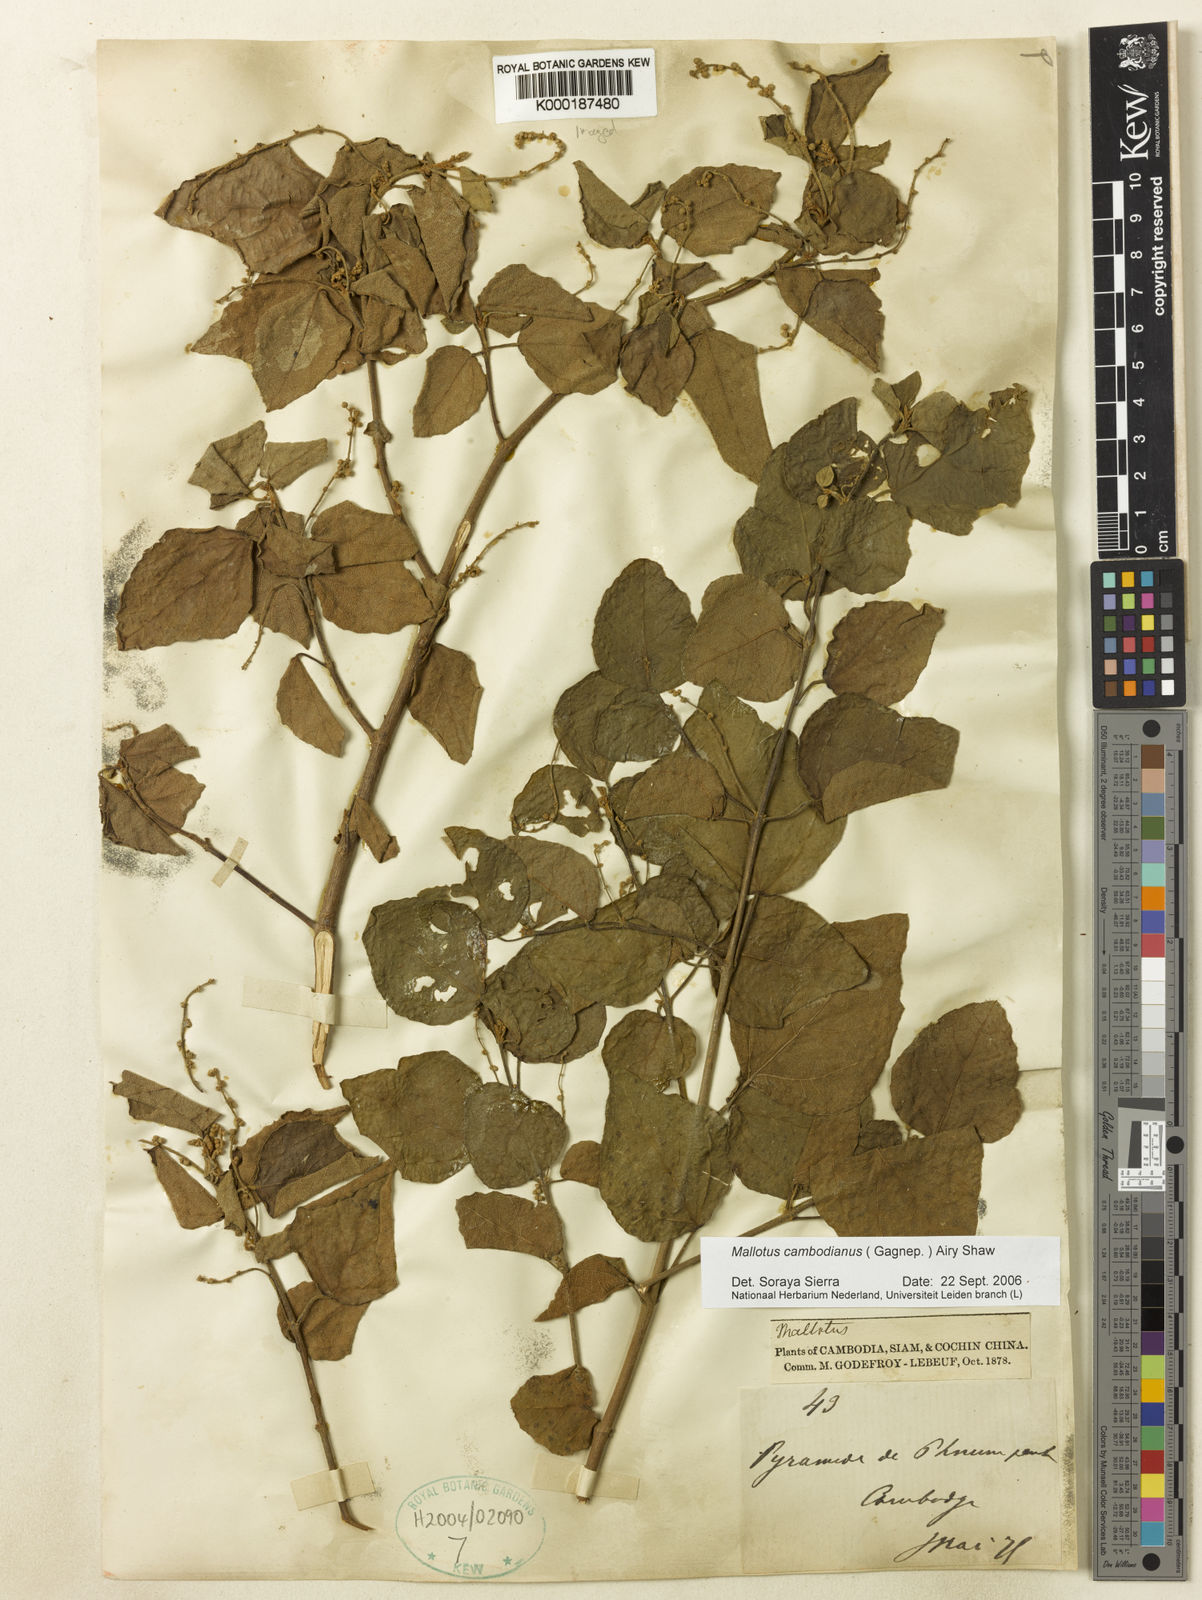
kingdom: Plantae
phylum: Tracheophyta
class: Magnoliopsida
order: Malpighiales
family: Euphorbiaceae
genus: Mallotus
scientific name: Mallotus cambodianus
